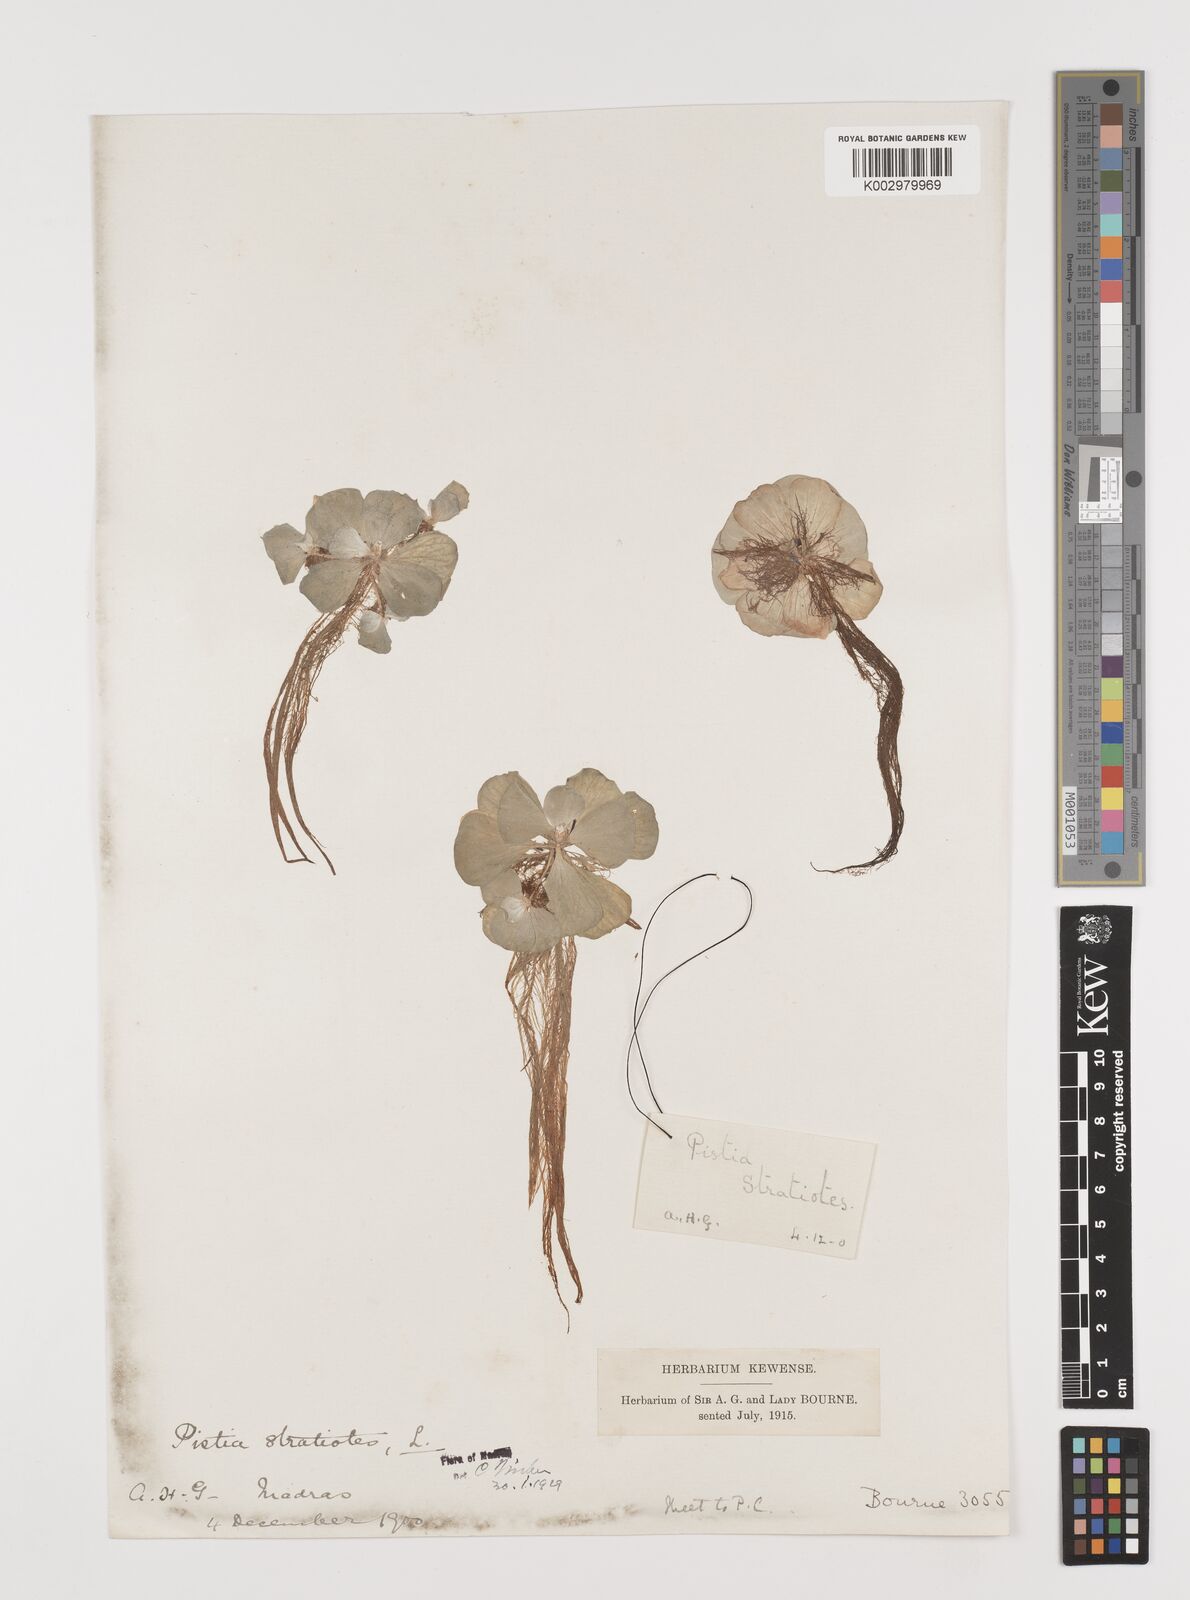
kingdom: Plantae
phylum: Tracheophyta
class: Liliopsida
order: Alismatales
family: Araceae
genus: Pistia
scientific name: Pistia stratiotes
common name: Water lettuce
